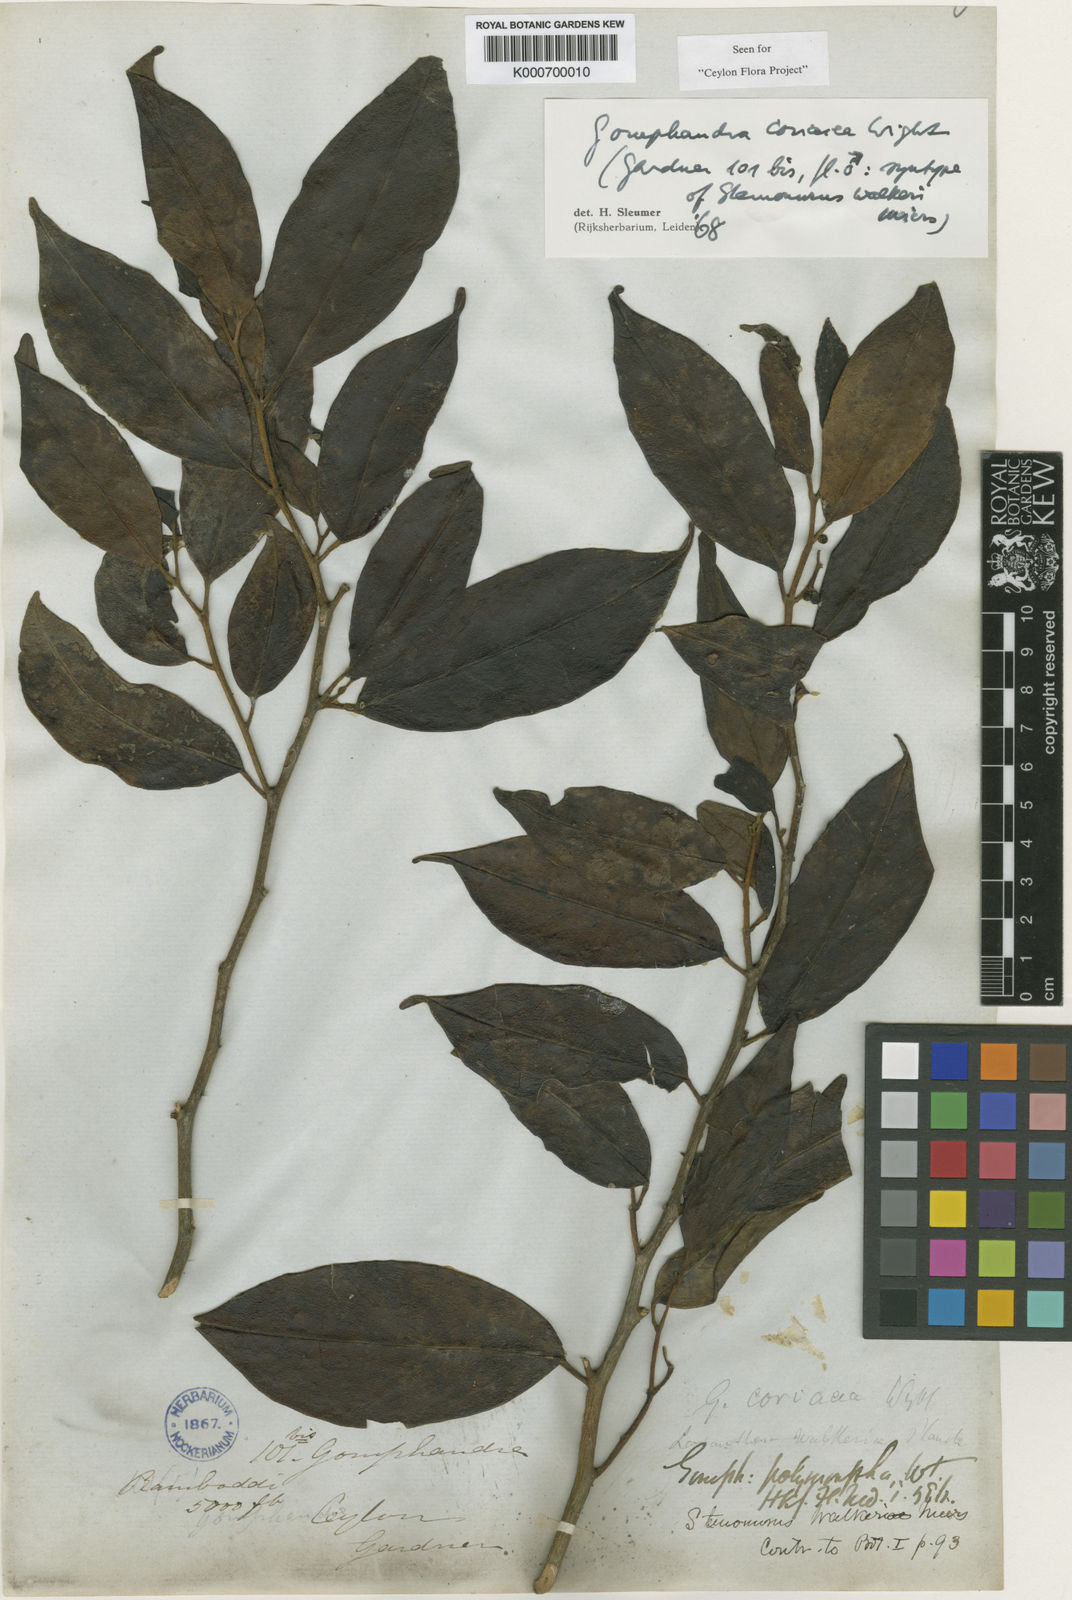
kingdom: Plantae
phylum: Tracheophyta
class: Magnoliopsida
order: Cardiopteridales
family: Stemonuraceae
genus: Gomphandra
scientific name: Gomphandra coriacea
